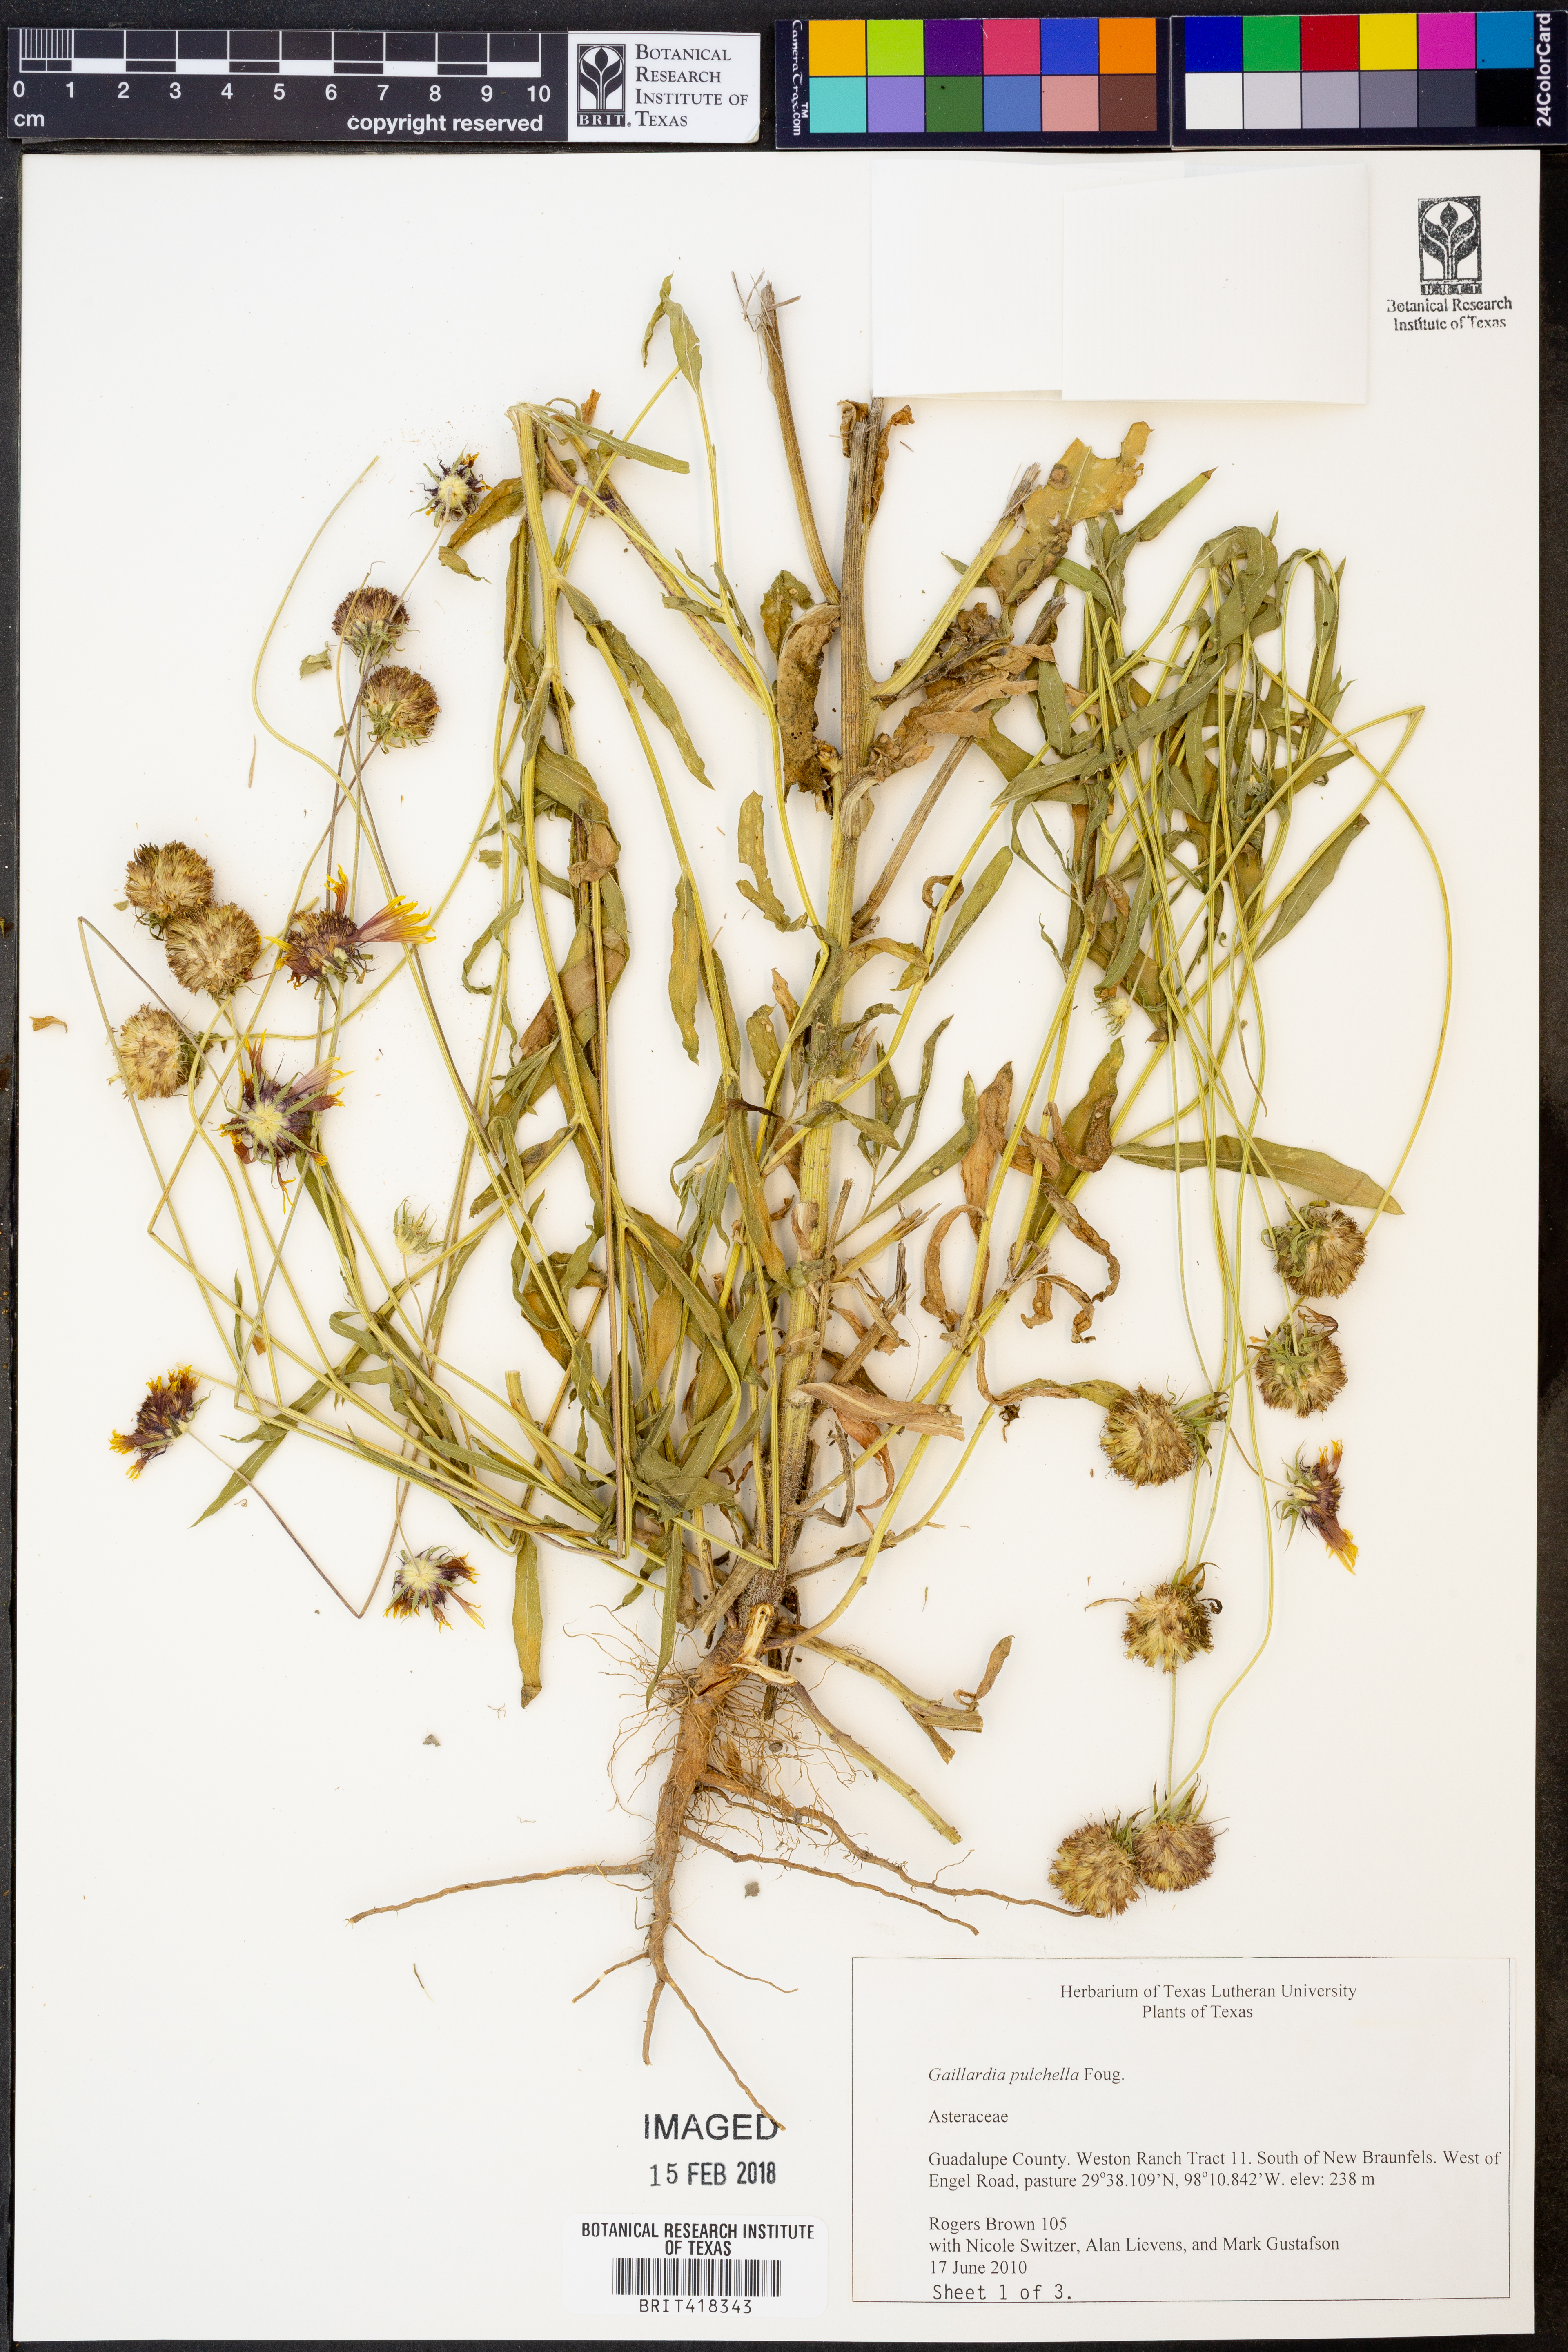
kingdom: Plantae
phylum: Tracheophyta
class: Magnoliopsida
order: Asterales
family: Asteraceae
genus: Gaillardia
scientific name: Gaillardia pulchella
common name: Firewheel
